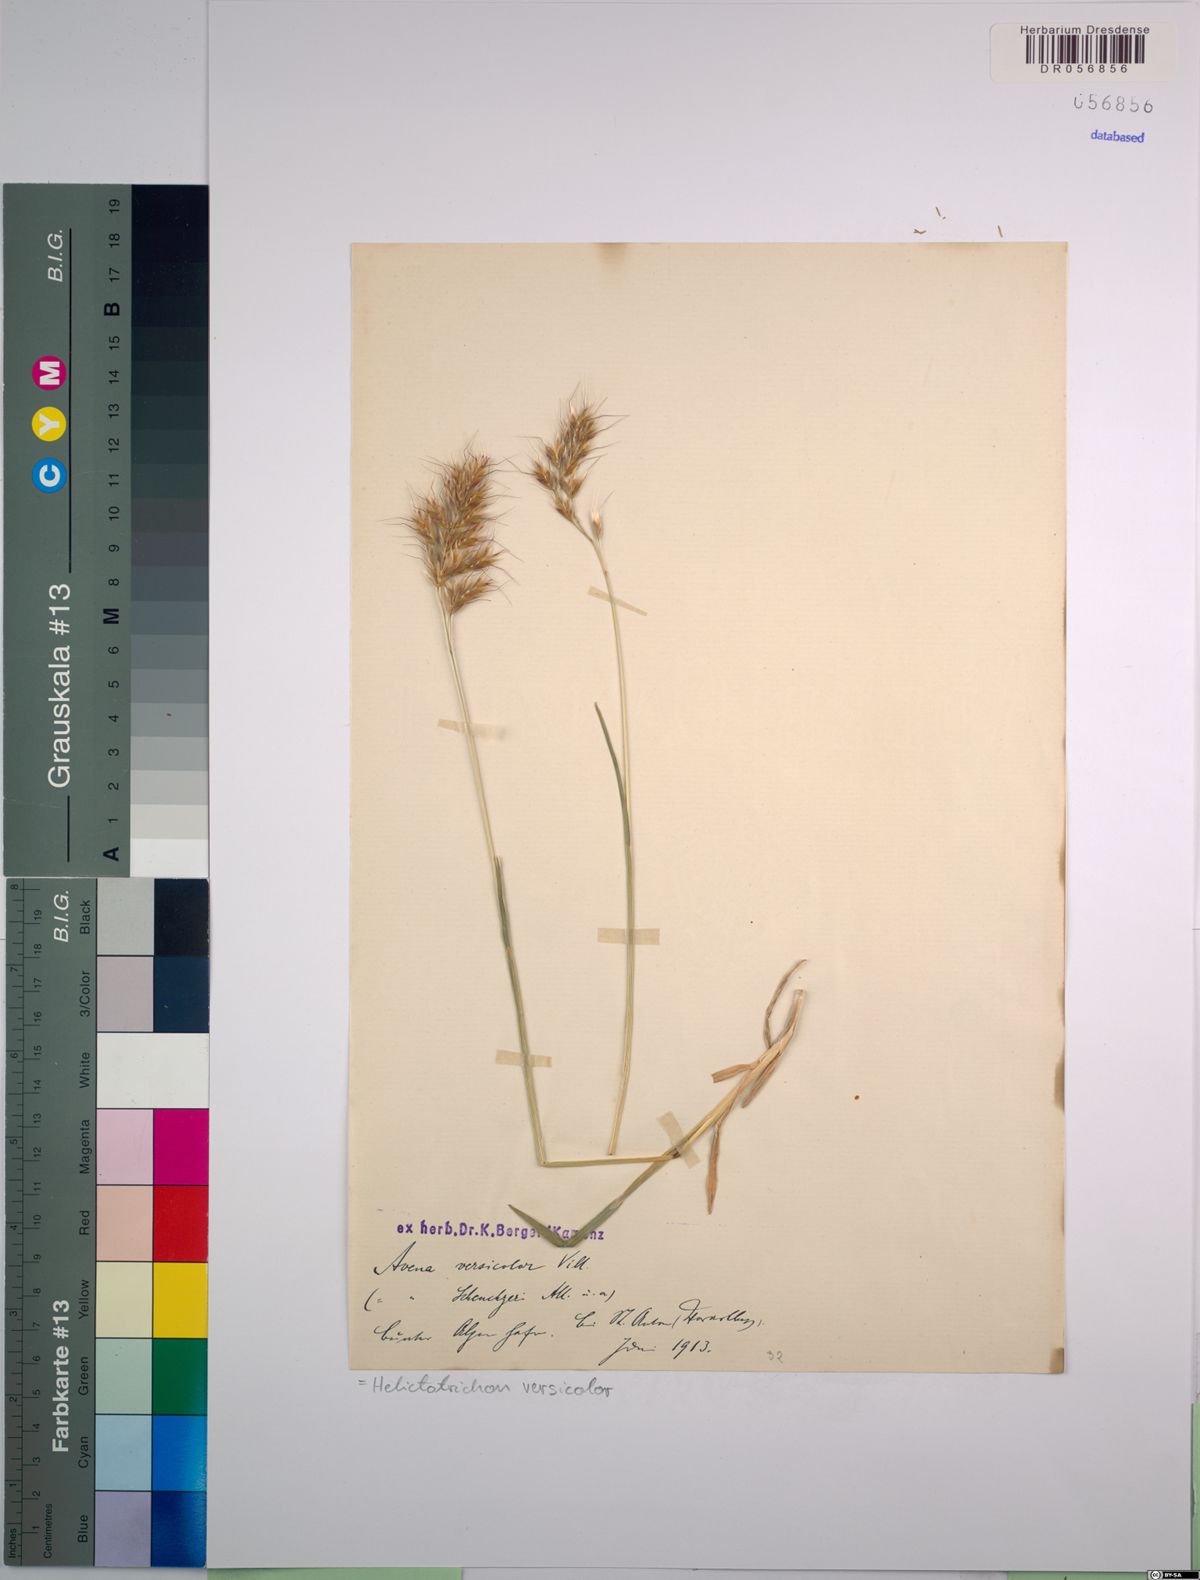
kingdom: Plantae
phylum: Tracheophyta
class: Liliopsida
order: Poales
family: Poaceae
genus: Helictochloa
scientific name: Helictochloa versicolor
